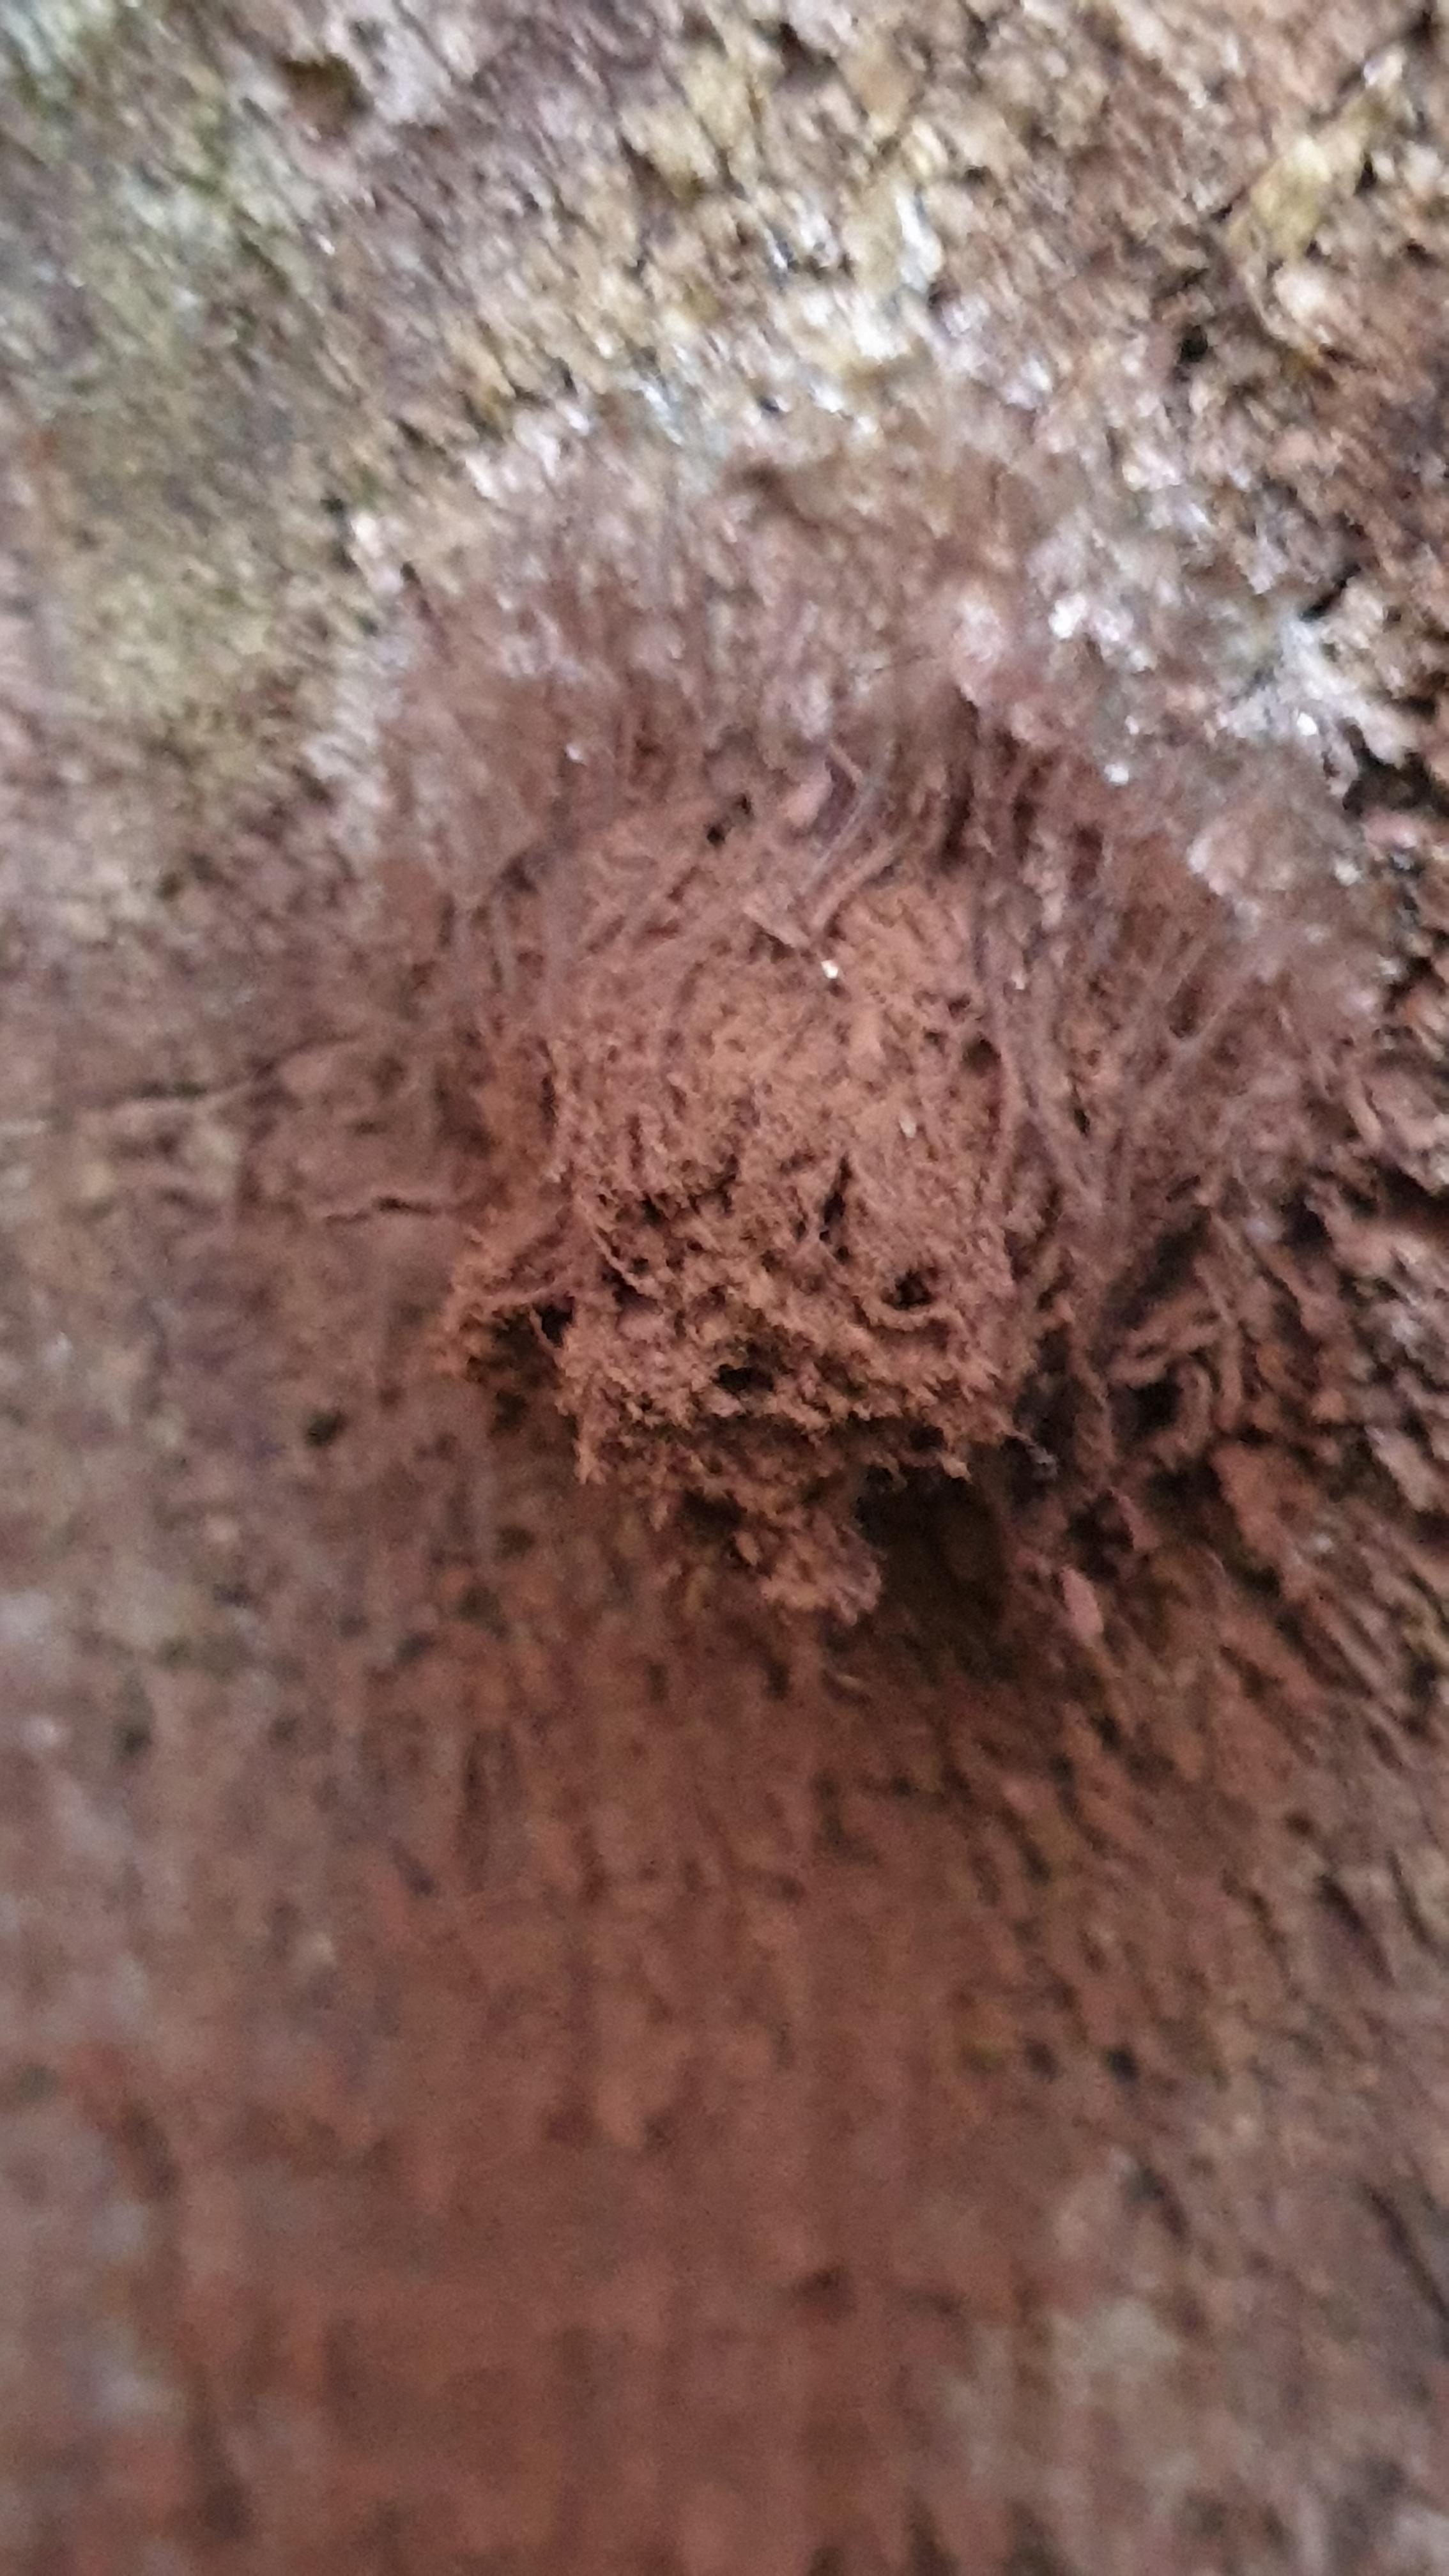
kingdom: Protozoa
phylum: Mycetozoa
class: Myxomycetes
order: Stemonitidales
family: Stemonitidaceae
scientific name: Stemonitidaceae
